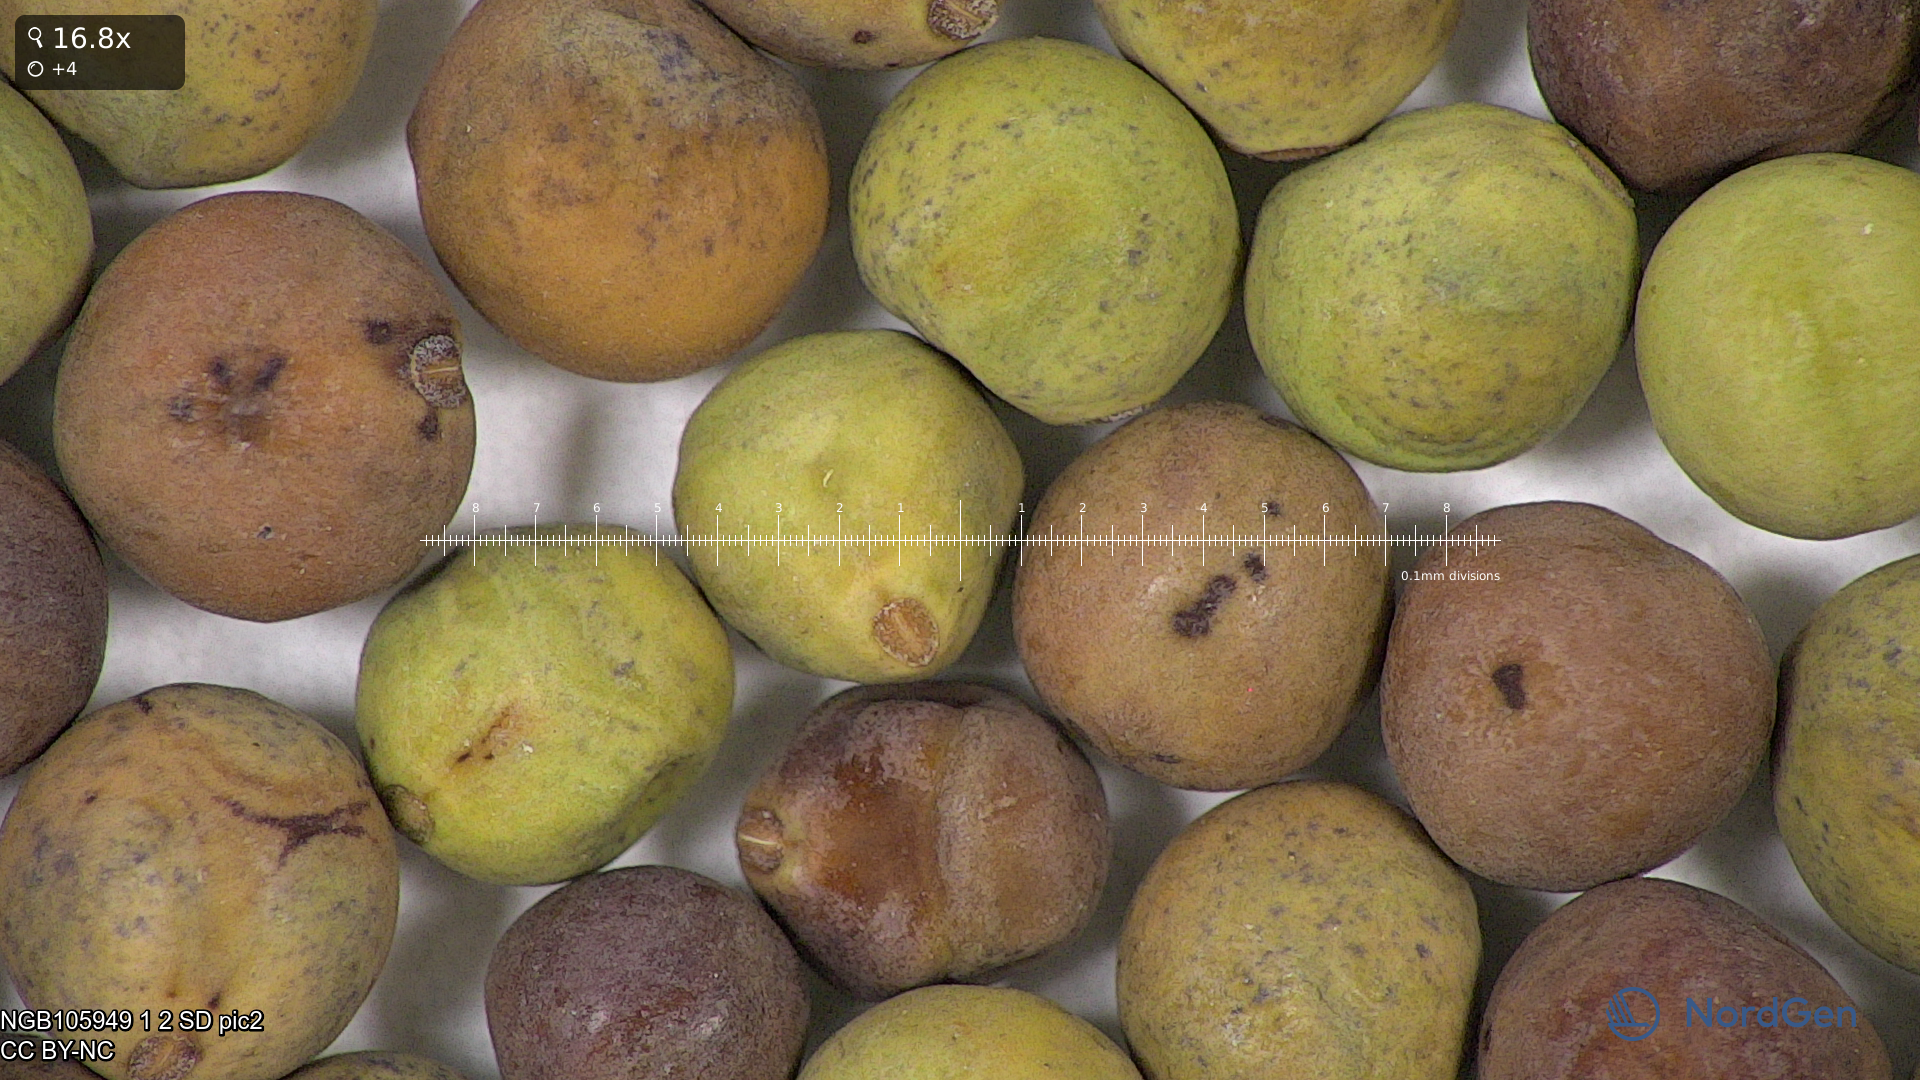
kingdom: Plantae
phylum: Tracheophyta
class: Magnoliopsida
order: Fabales
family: Fabaceae
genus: Lathyrus
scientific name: Lathyrus oleraceus
